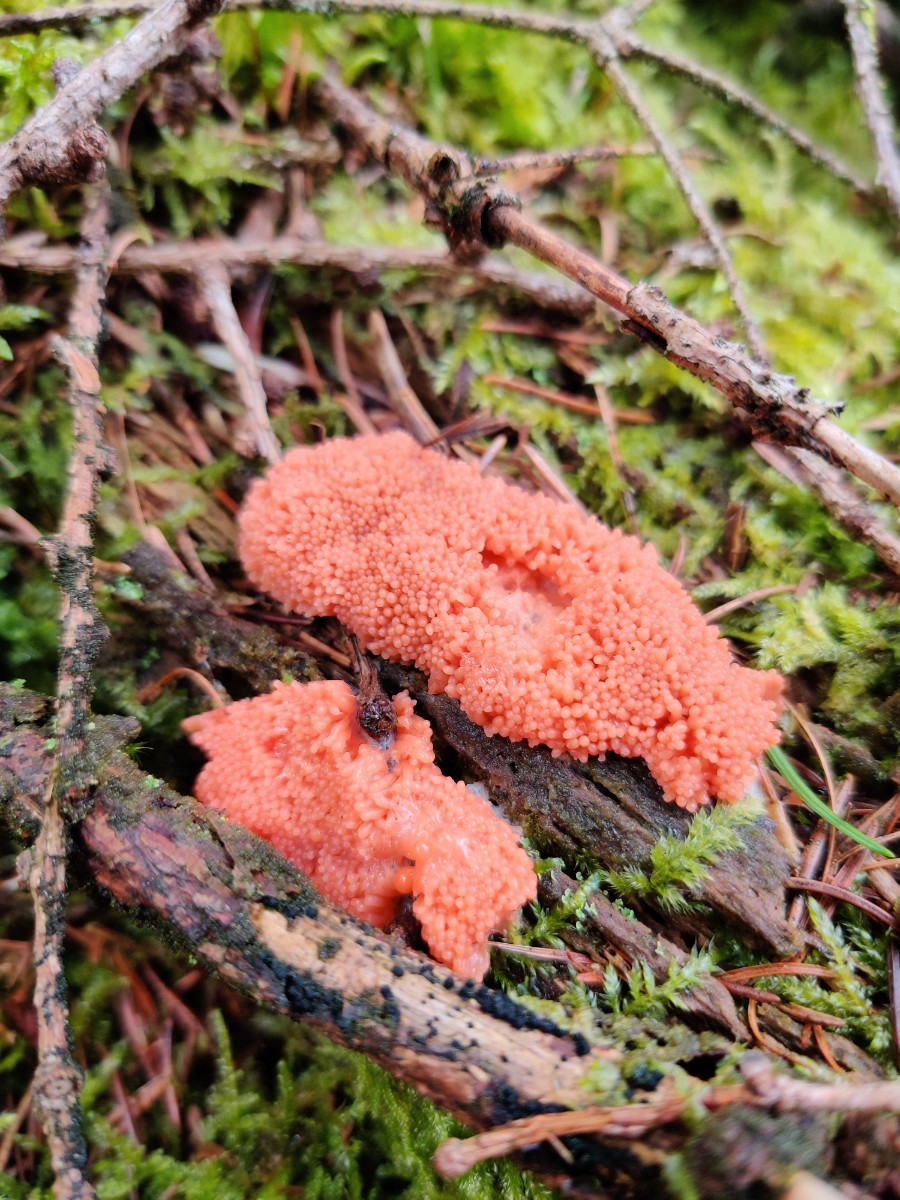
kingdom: Protozoa
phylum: Mycetozoa
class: Myxomycetes
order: Cribrariales
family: Tubiferaceae
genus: Tubifera
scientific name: Tubifera ferruginosa
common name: kanel-støvrør
